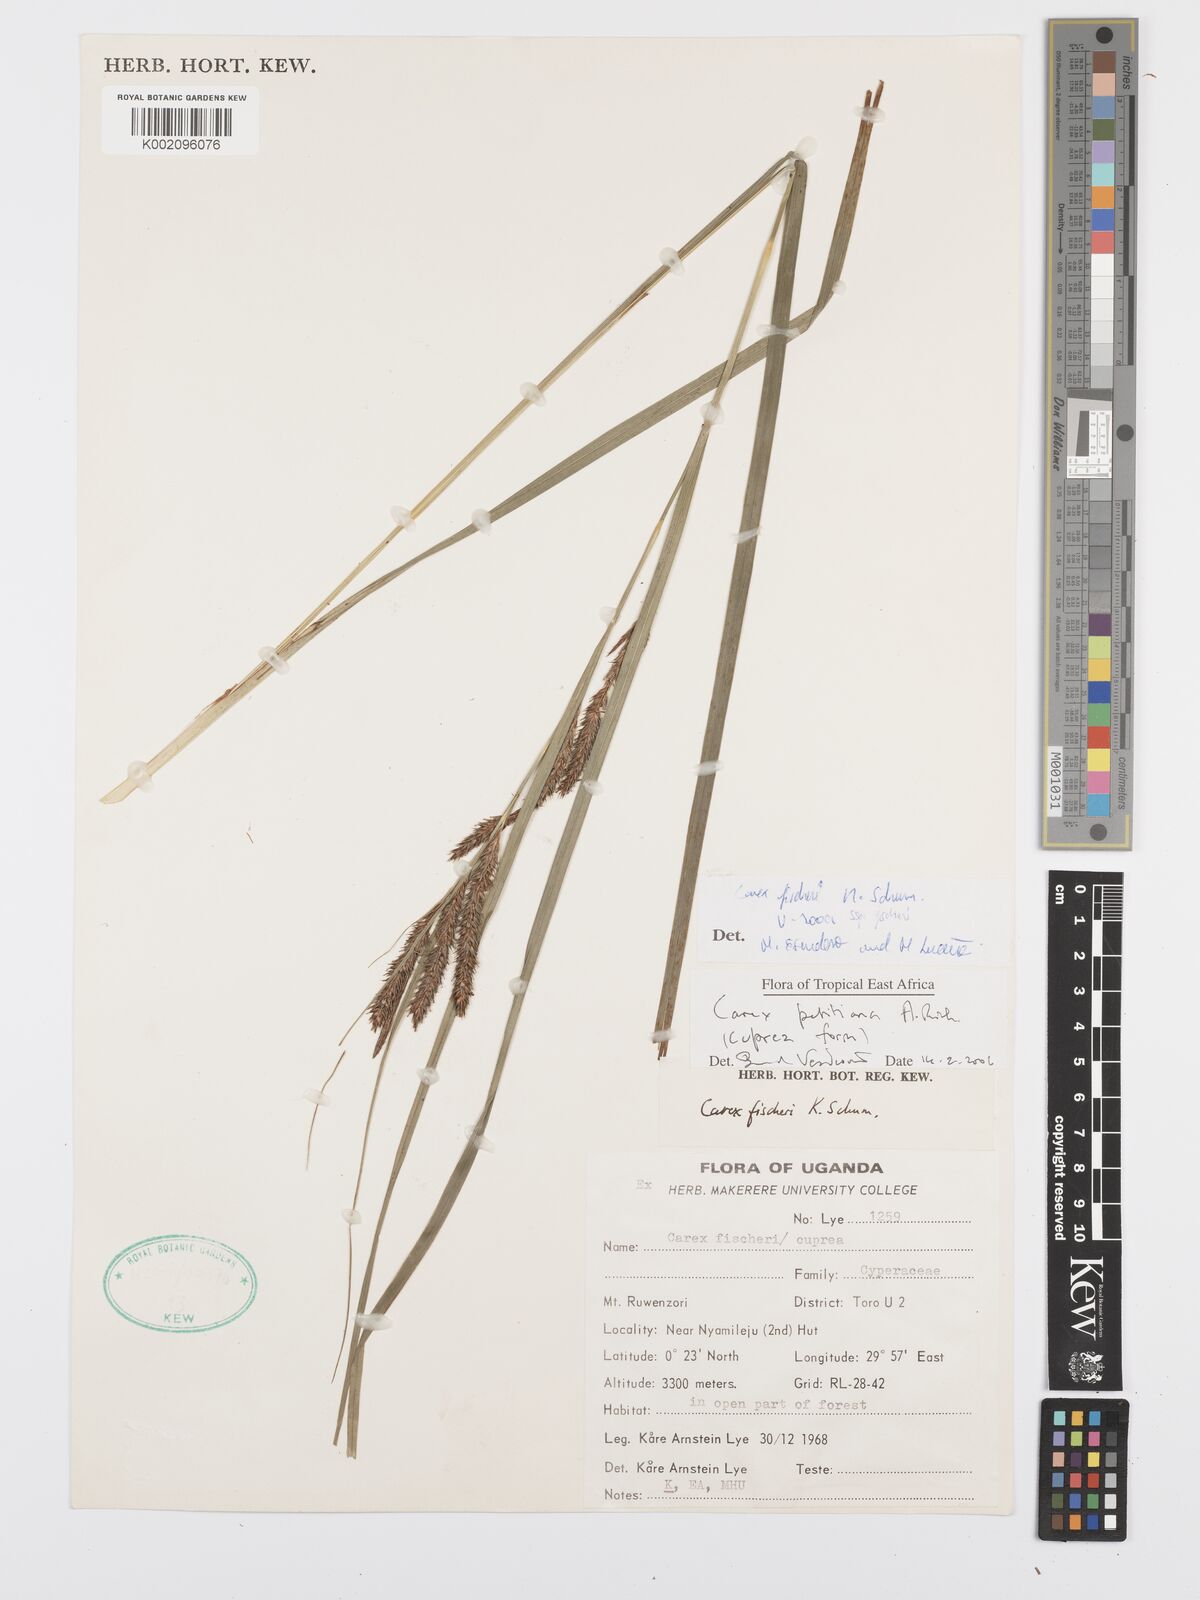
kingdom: Plantae
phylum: Tracheophyta
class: Liliopsida
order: Poales
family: Cyperaceae
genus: Carex
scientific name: Carex fischeri
